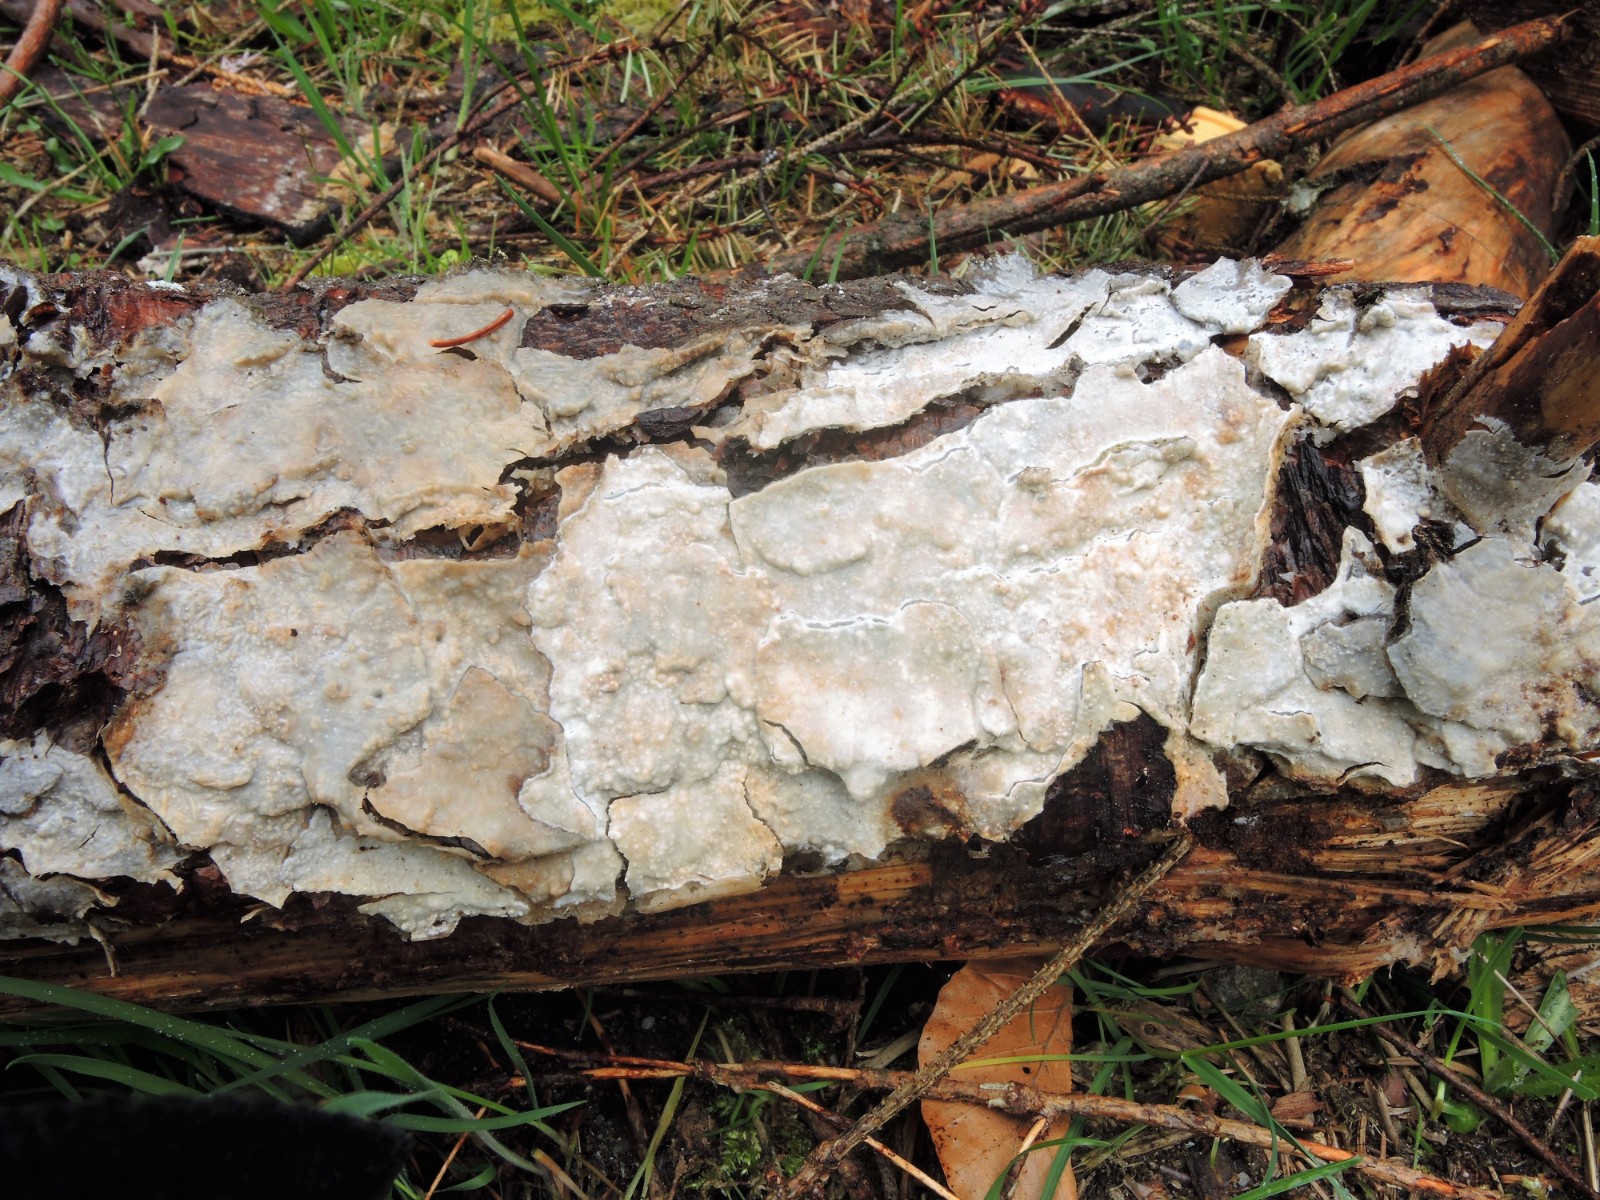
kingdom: Fungi
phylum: Basidiomycota
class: Agaricomycetes
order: Polyporales
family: Phanerochaetaceae
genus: Phlebiopsis
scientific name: Phlebiopsis gigantea
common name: kæmpebarksvamp
